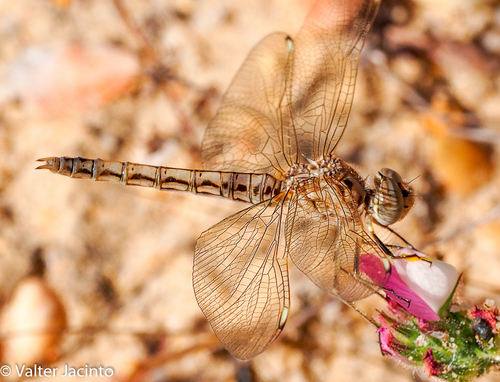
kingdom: Animalia
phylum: Arthropoda
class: Insecta
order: Odonata
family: Libellulidae
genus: Brachythemis
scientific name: Brachythemis impartita
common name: Banded groundling
